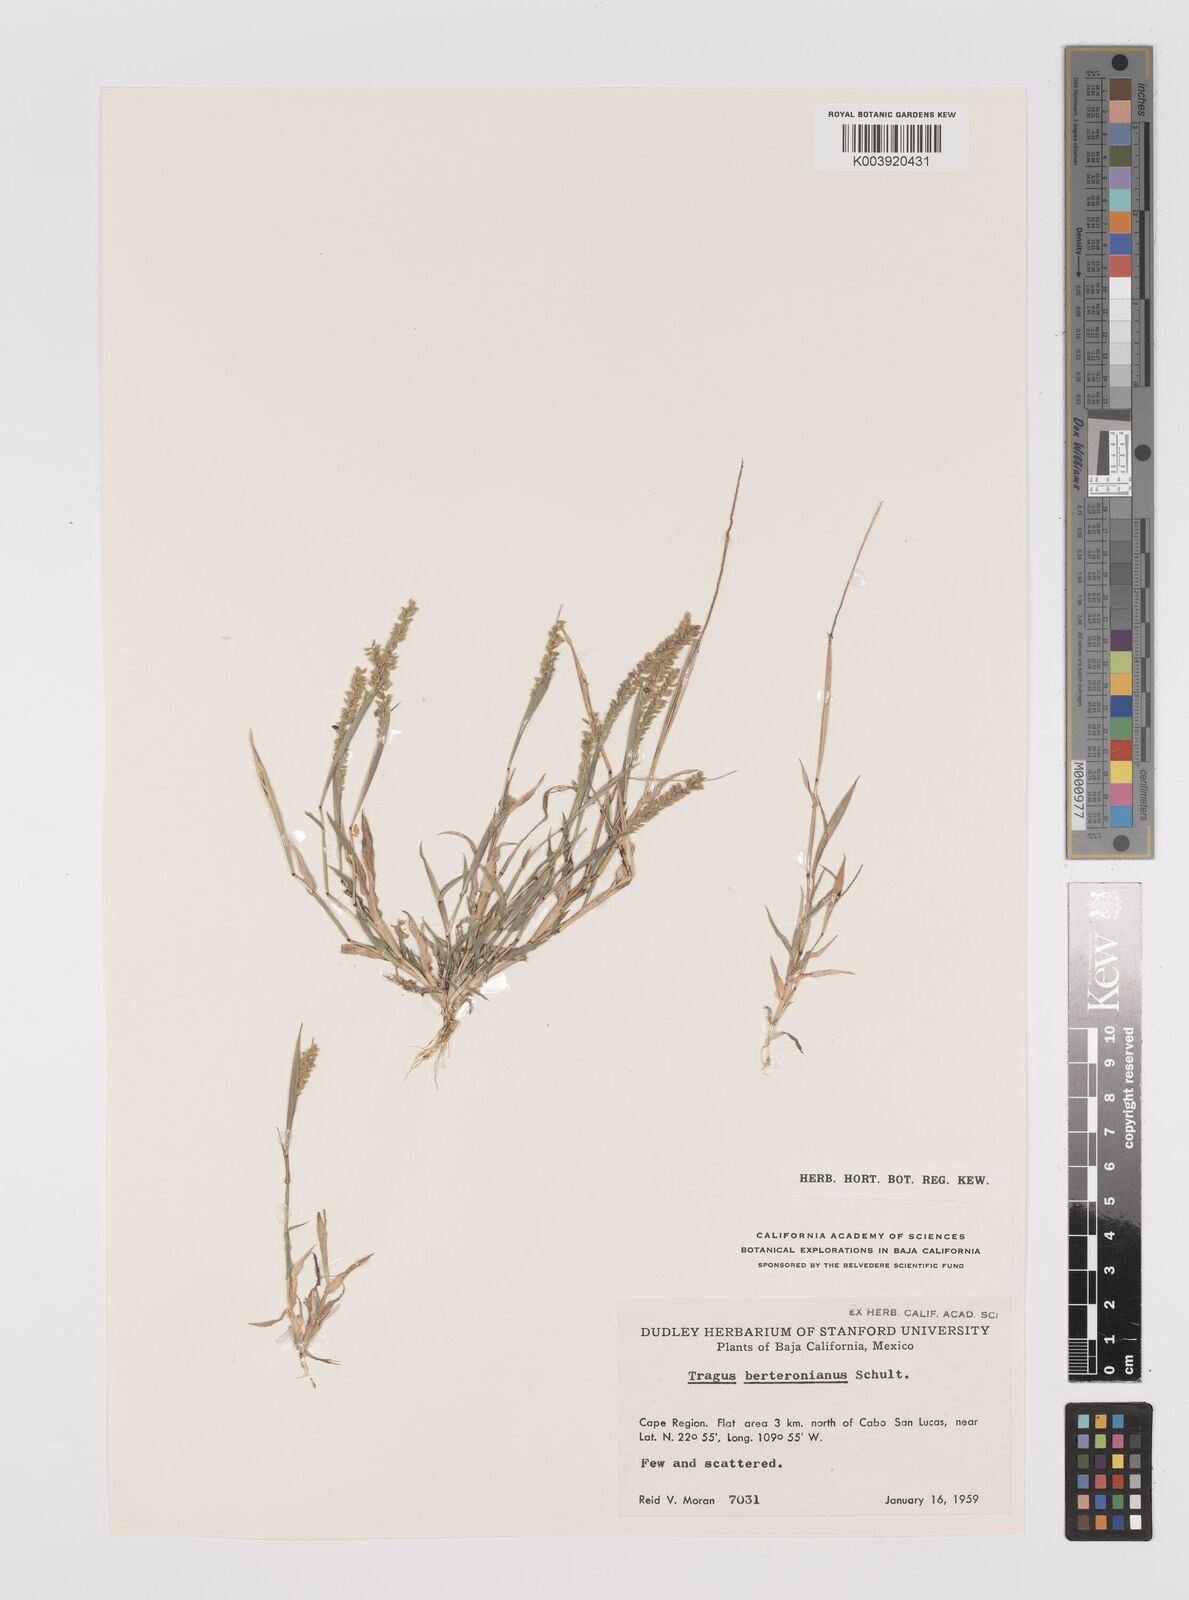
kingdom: Plantae
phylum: Tracheophyta
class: Liliopsida
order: Poales
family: Poaceae
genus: Tragus
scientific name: Tragus berteronianus
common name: African bur-grass
